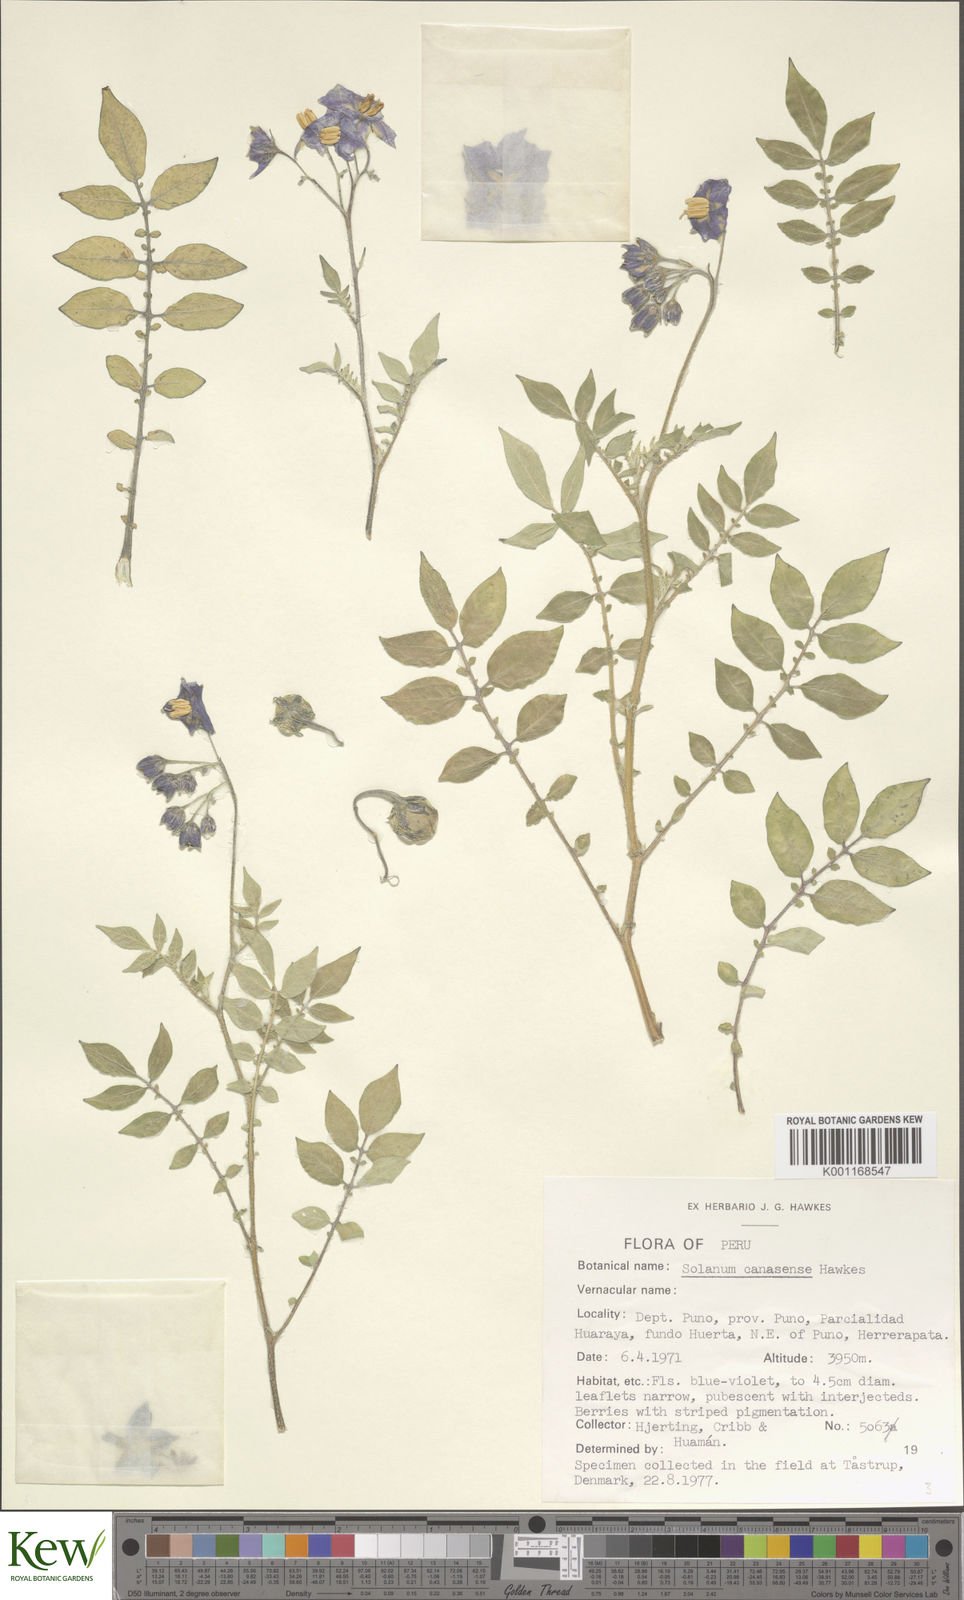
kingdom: Plantae
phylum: Tracheophyta
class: Magnoliopsida
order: Solanales
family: Solanaceae
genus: Solanum
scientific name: Solanum candolleanum
